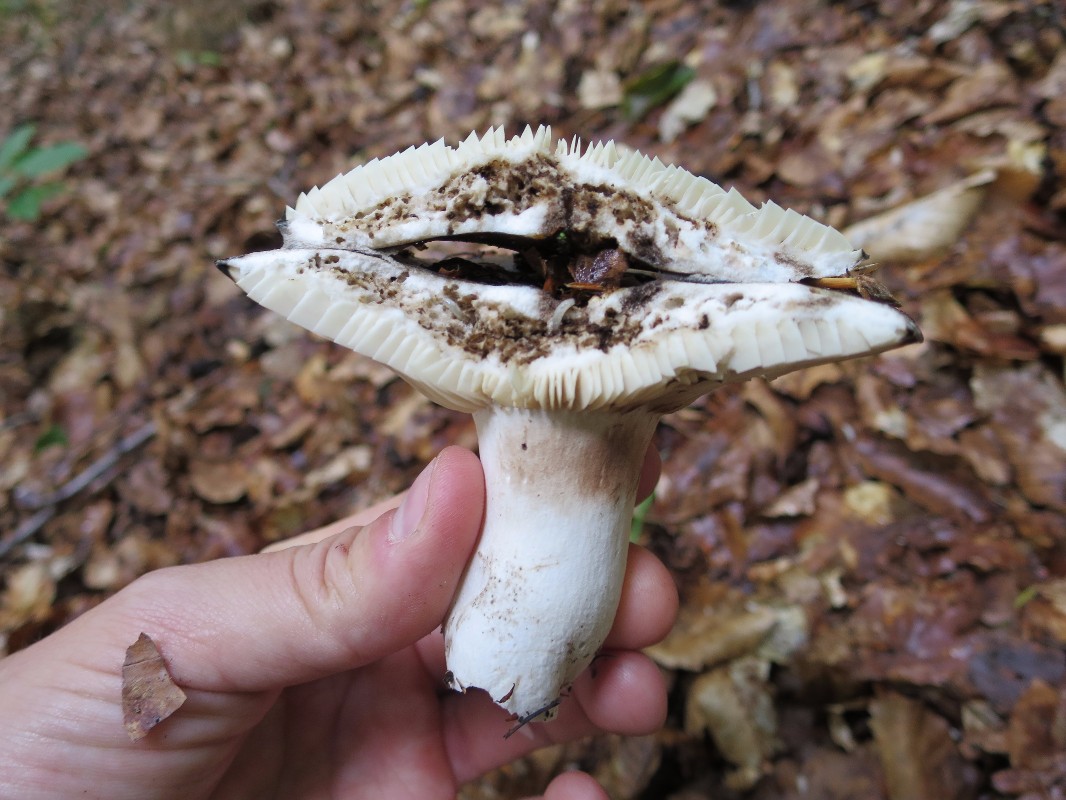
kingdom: Fungi
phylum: Basidiomycota
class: Agaricomycetes
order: Russulales
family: Russulaceae
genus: Russula
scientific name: Russula densifolia
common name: tætbladet skørhat
